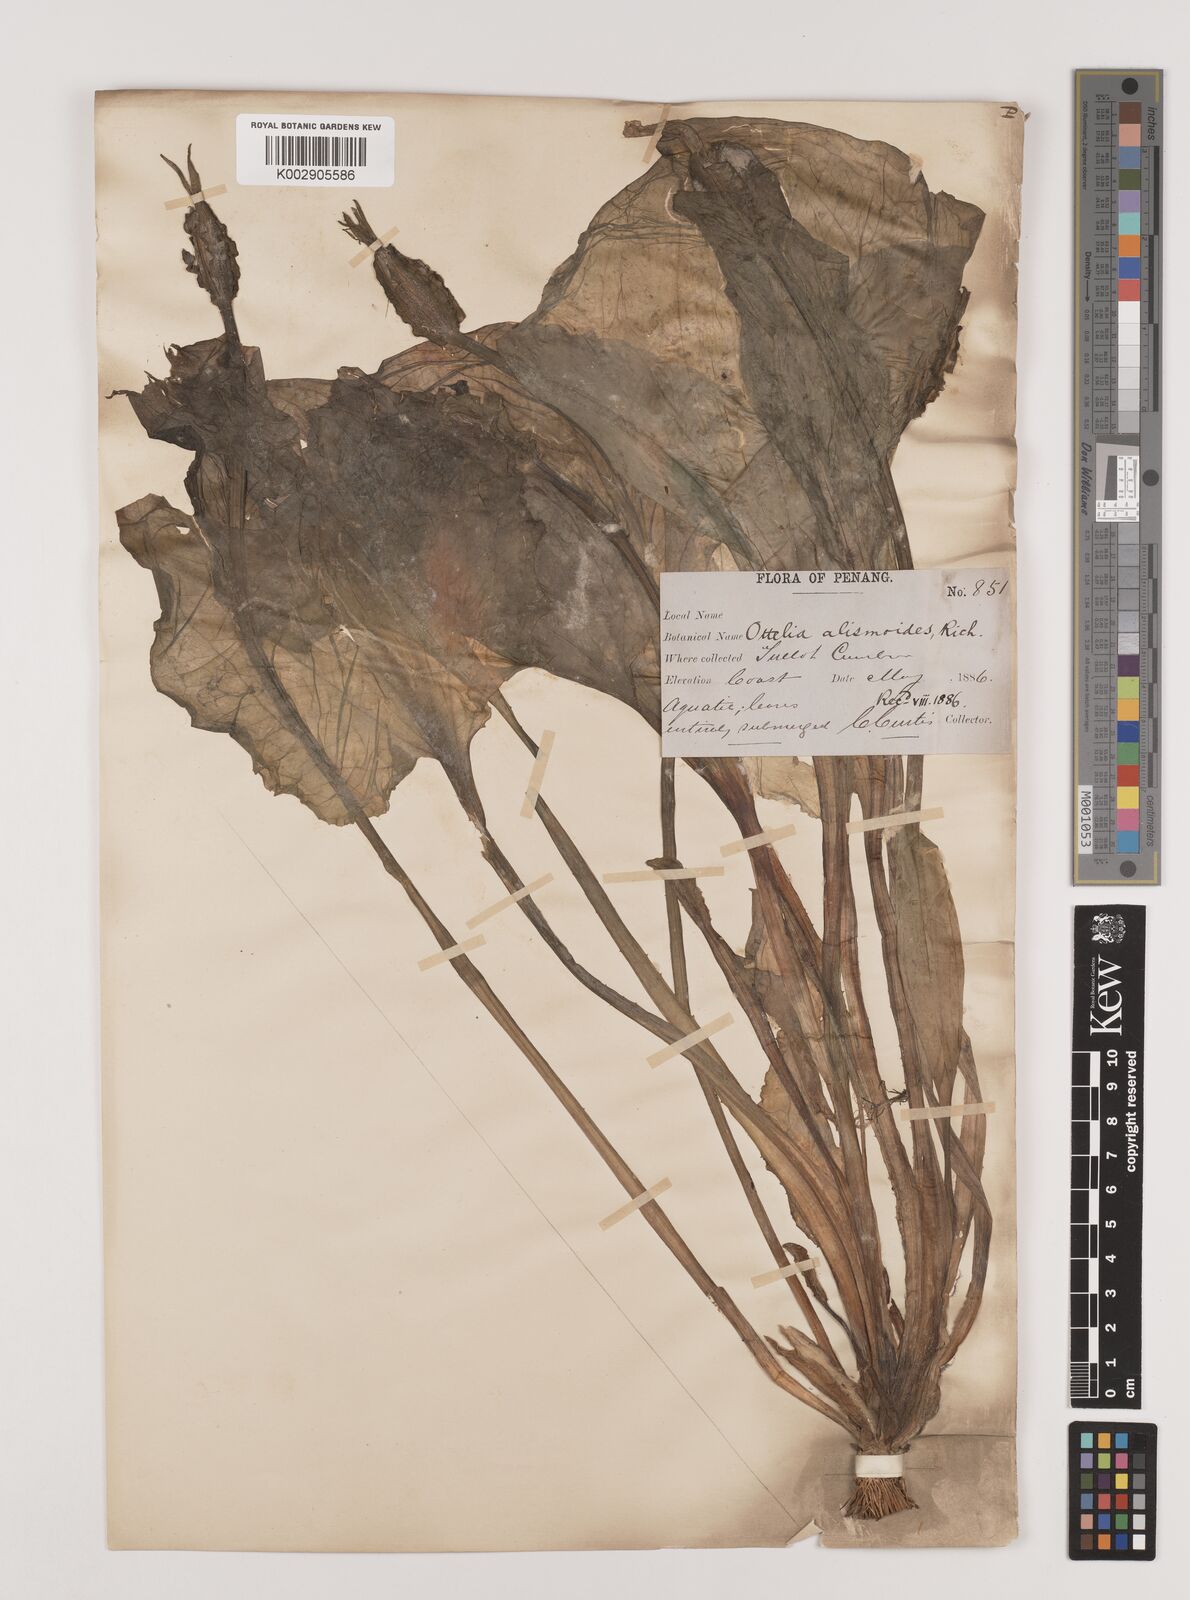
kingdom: Plantae
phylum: Tracheophyta
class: Liliopsida
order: Alismatales
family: Hydrocharitaceae
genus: Ottelia
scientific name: Ottelia alismoides
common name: Duck-lettuce
